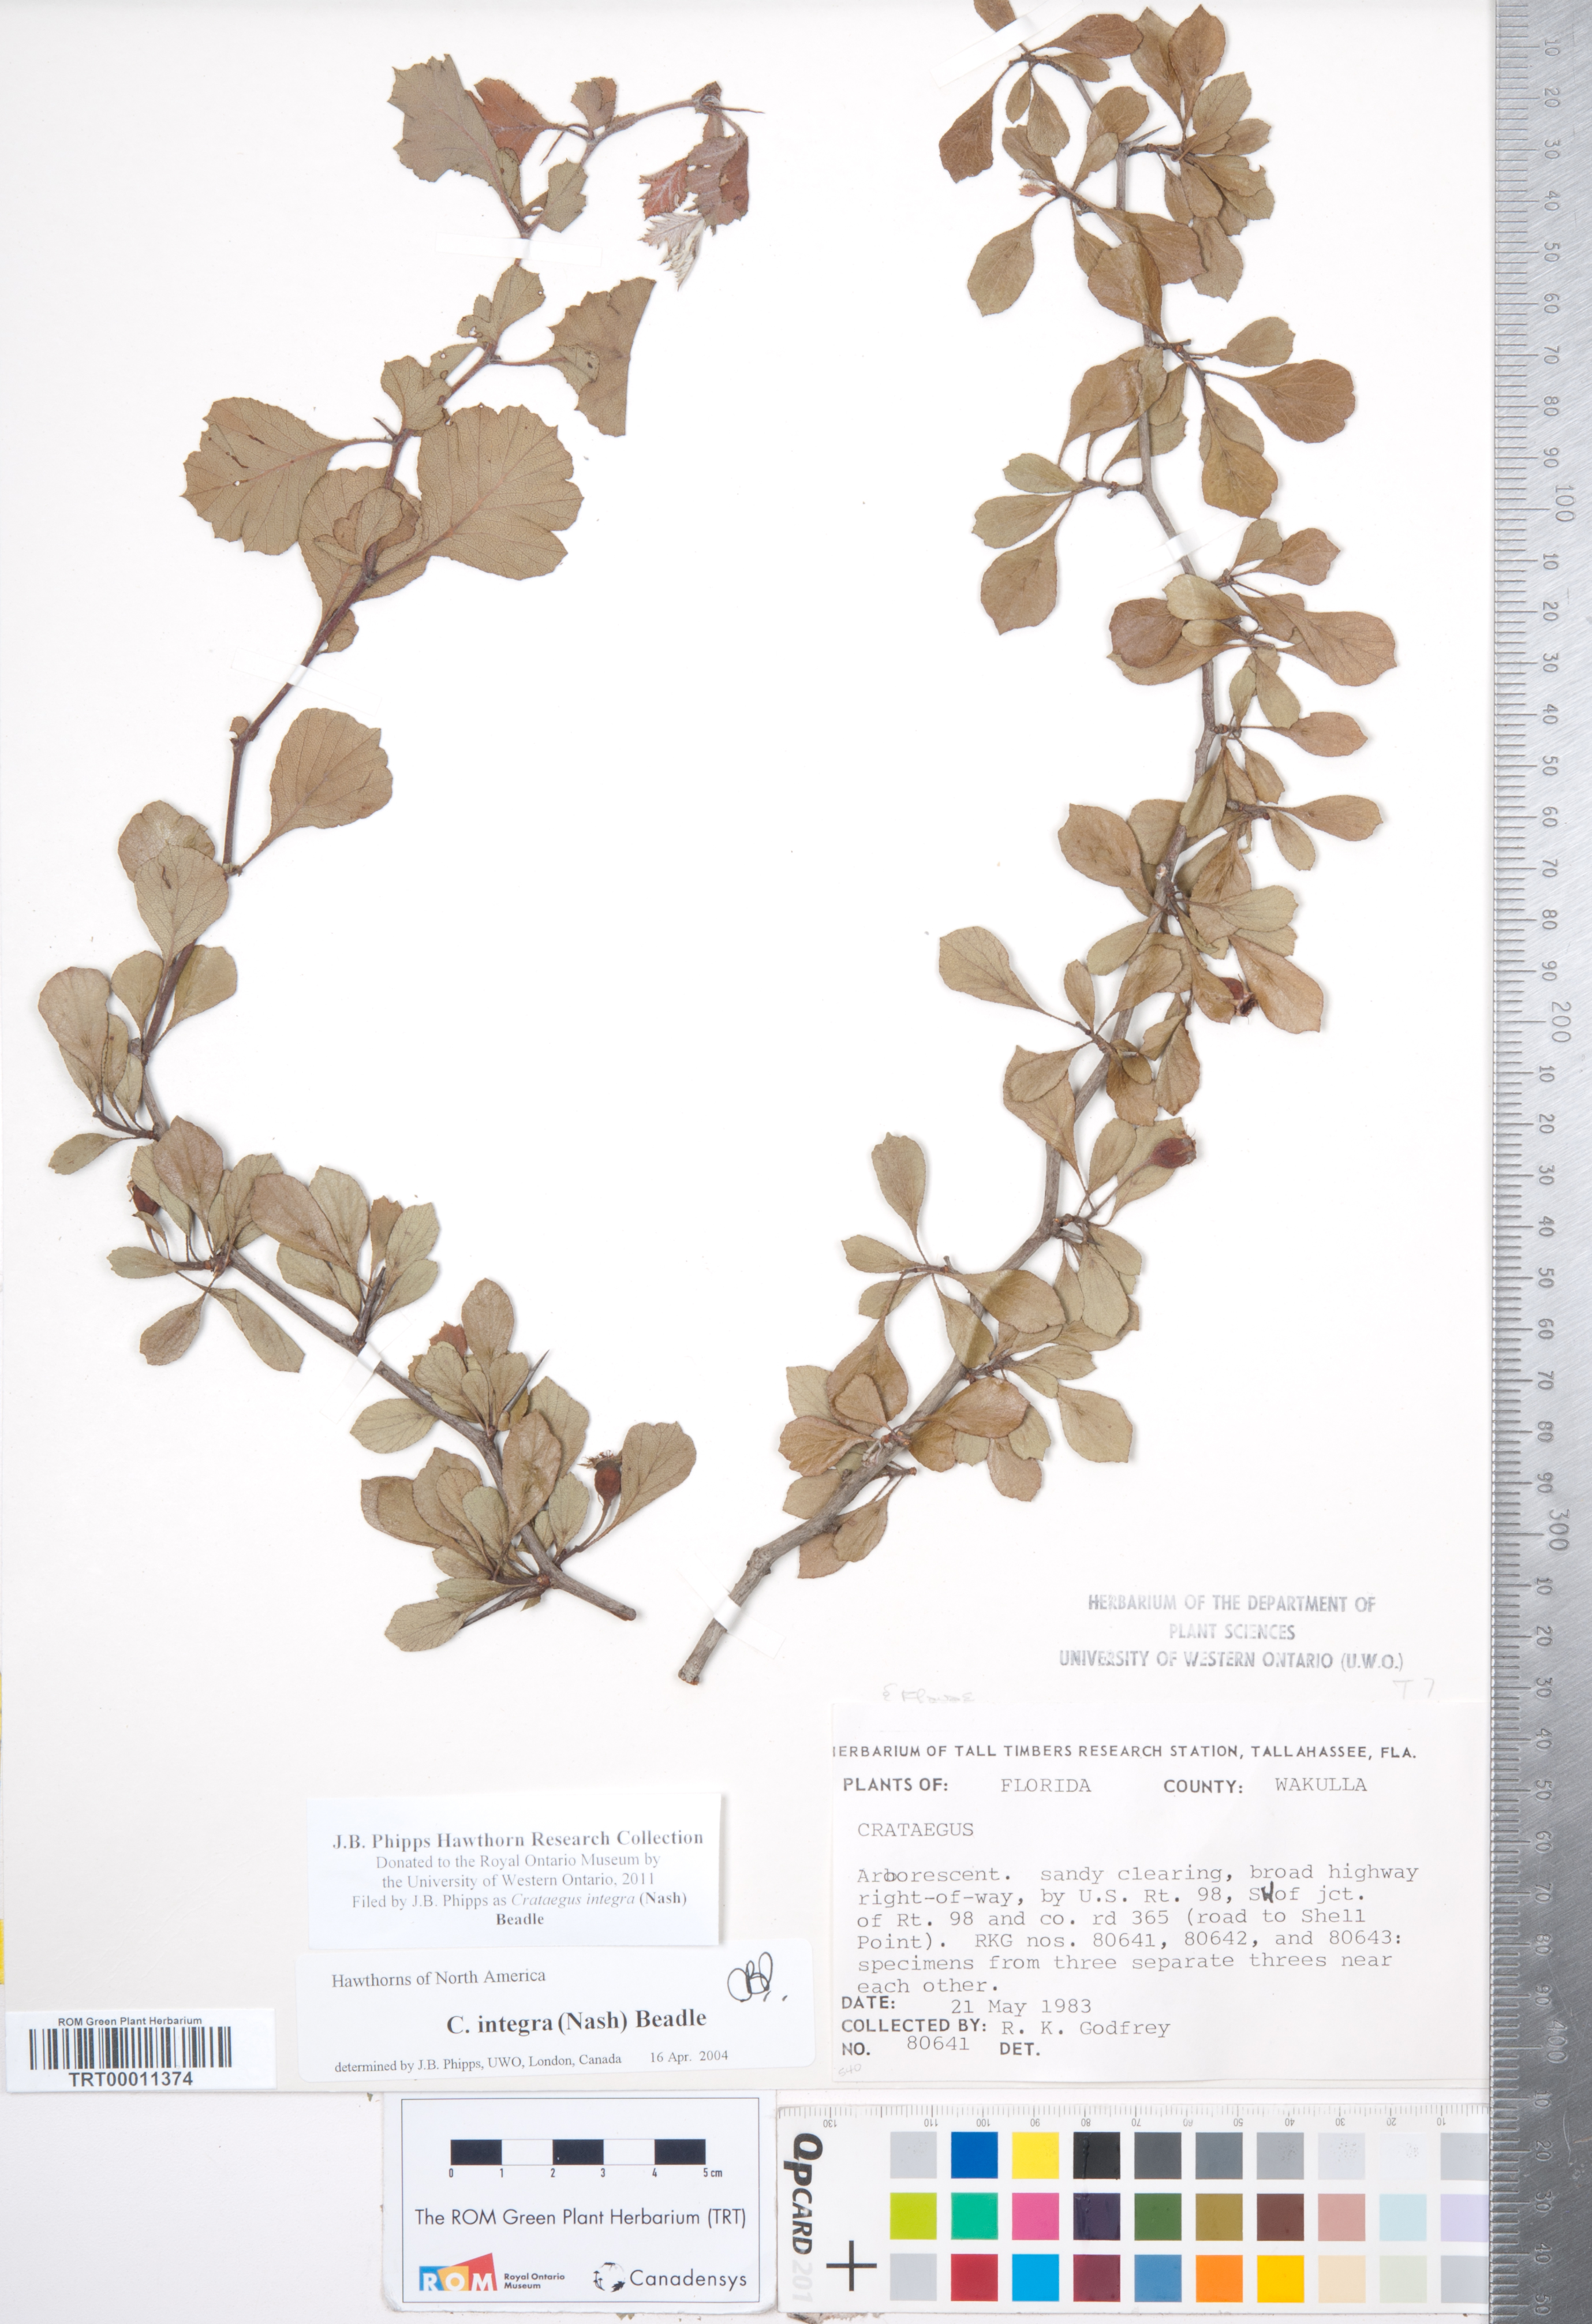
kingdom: Plantae
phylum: Tracheophyta
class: Magnoliopsida
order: Rosales
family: Rosaceae
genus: Crataegus
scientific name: Crataegus lassa
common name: Florida hawthorn
